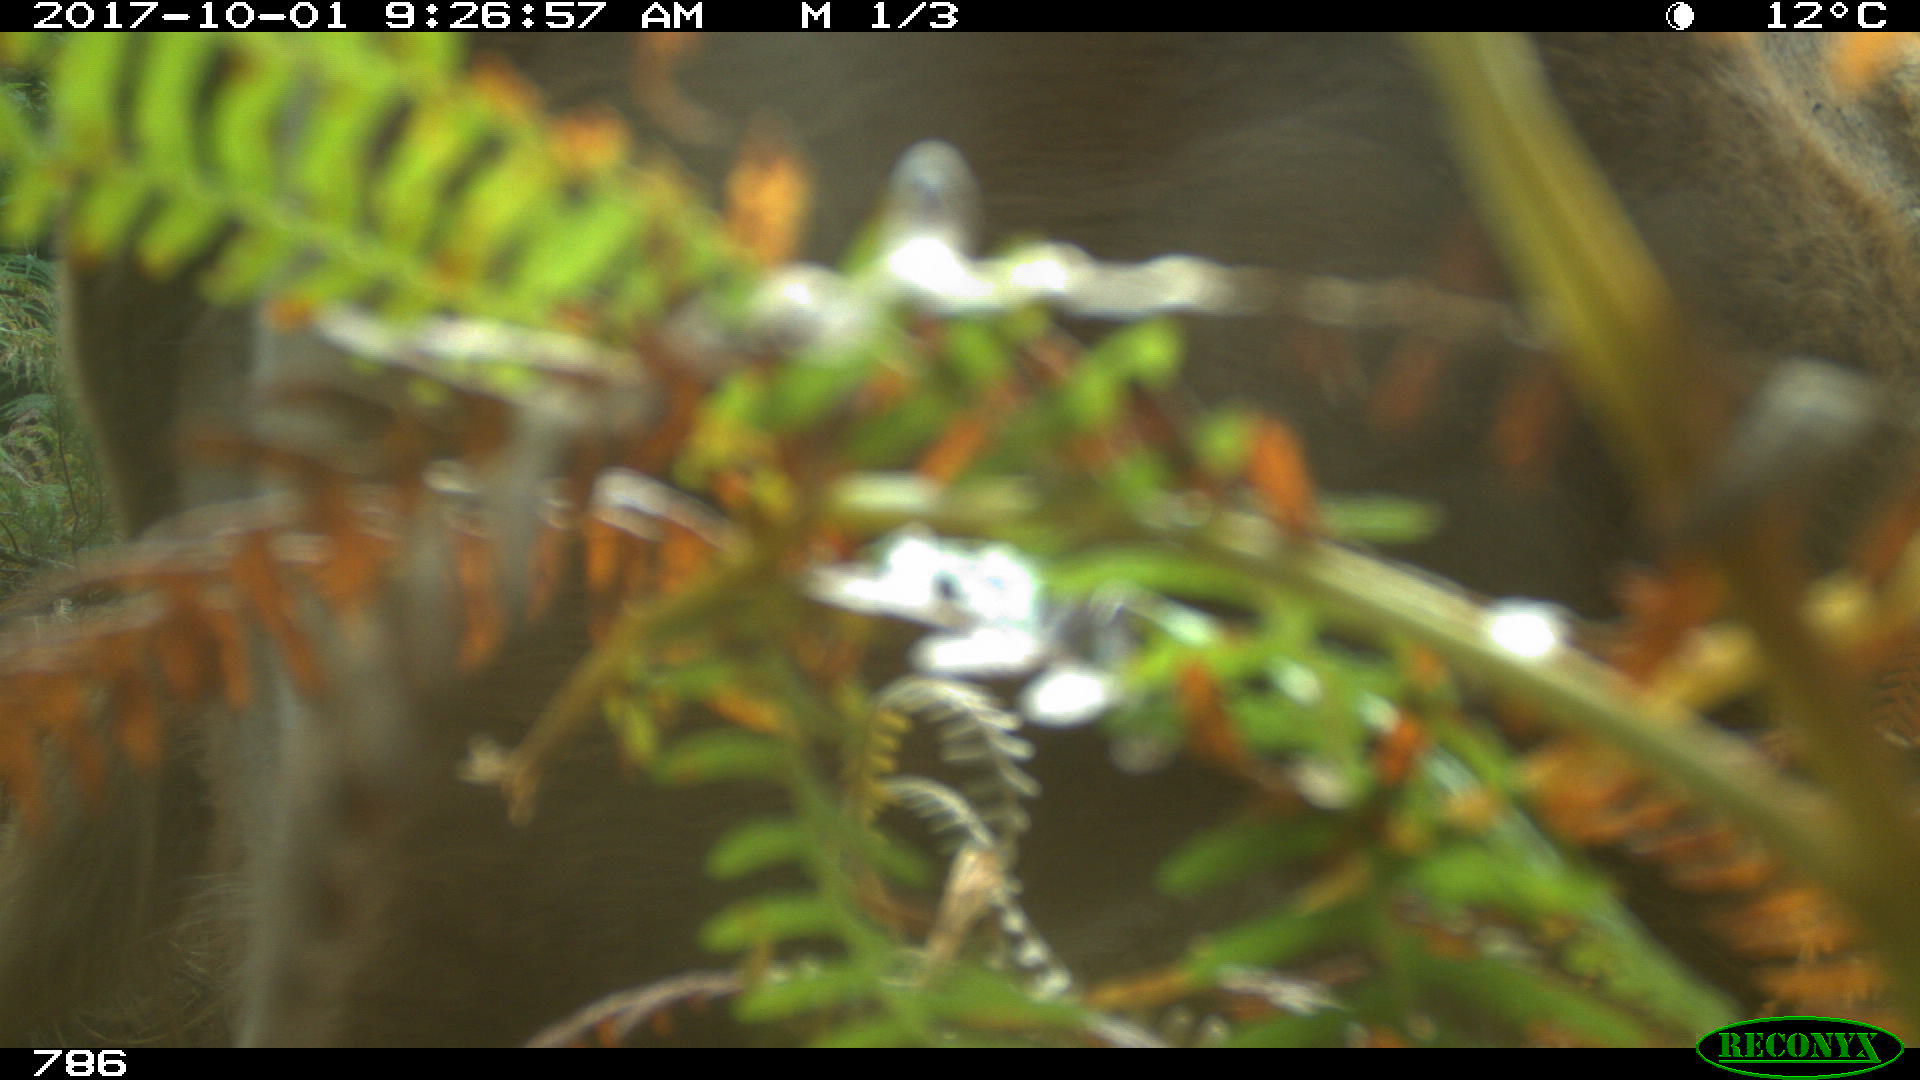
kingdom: Animalia
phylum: Chordata
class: Mammalia
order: Artiodactyla
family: Bovidae
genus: Bos
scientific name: Bos taurus
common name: Domesticated cattle
